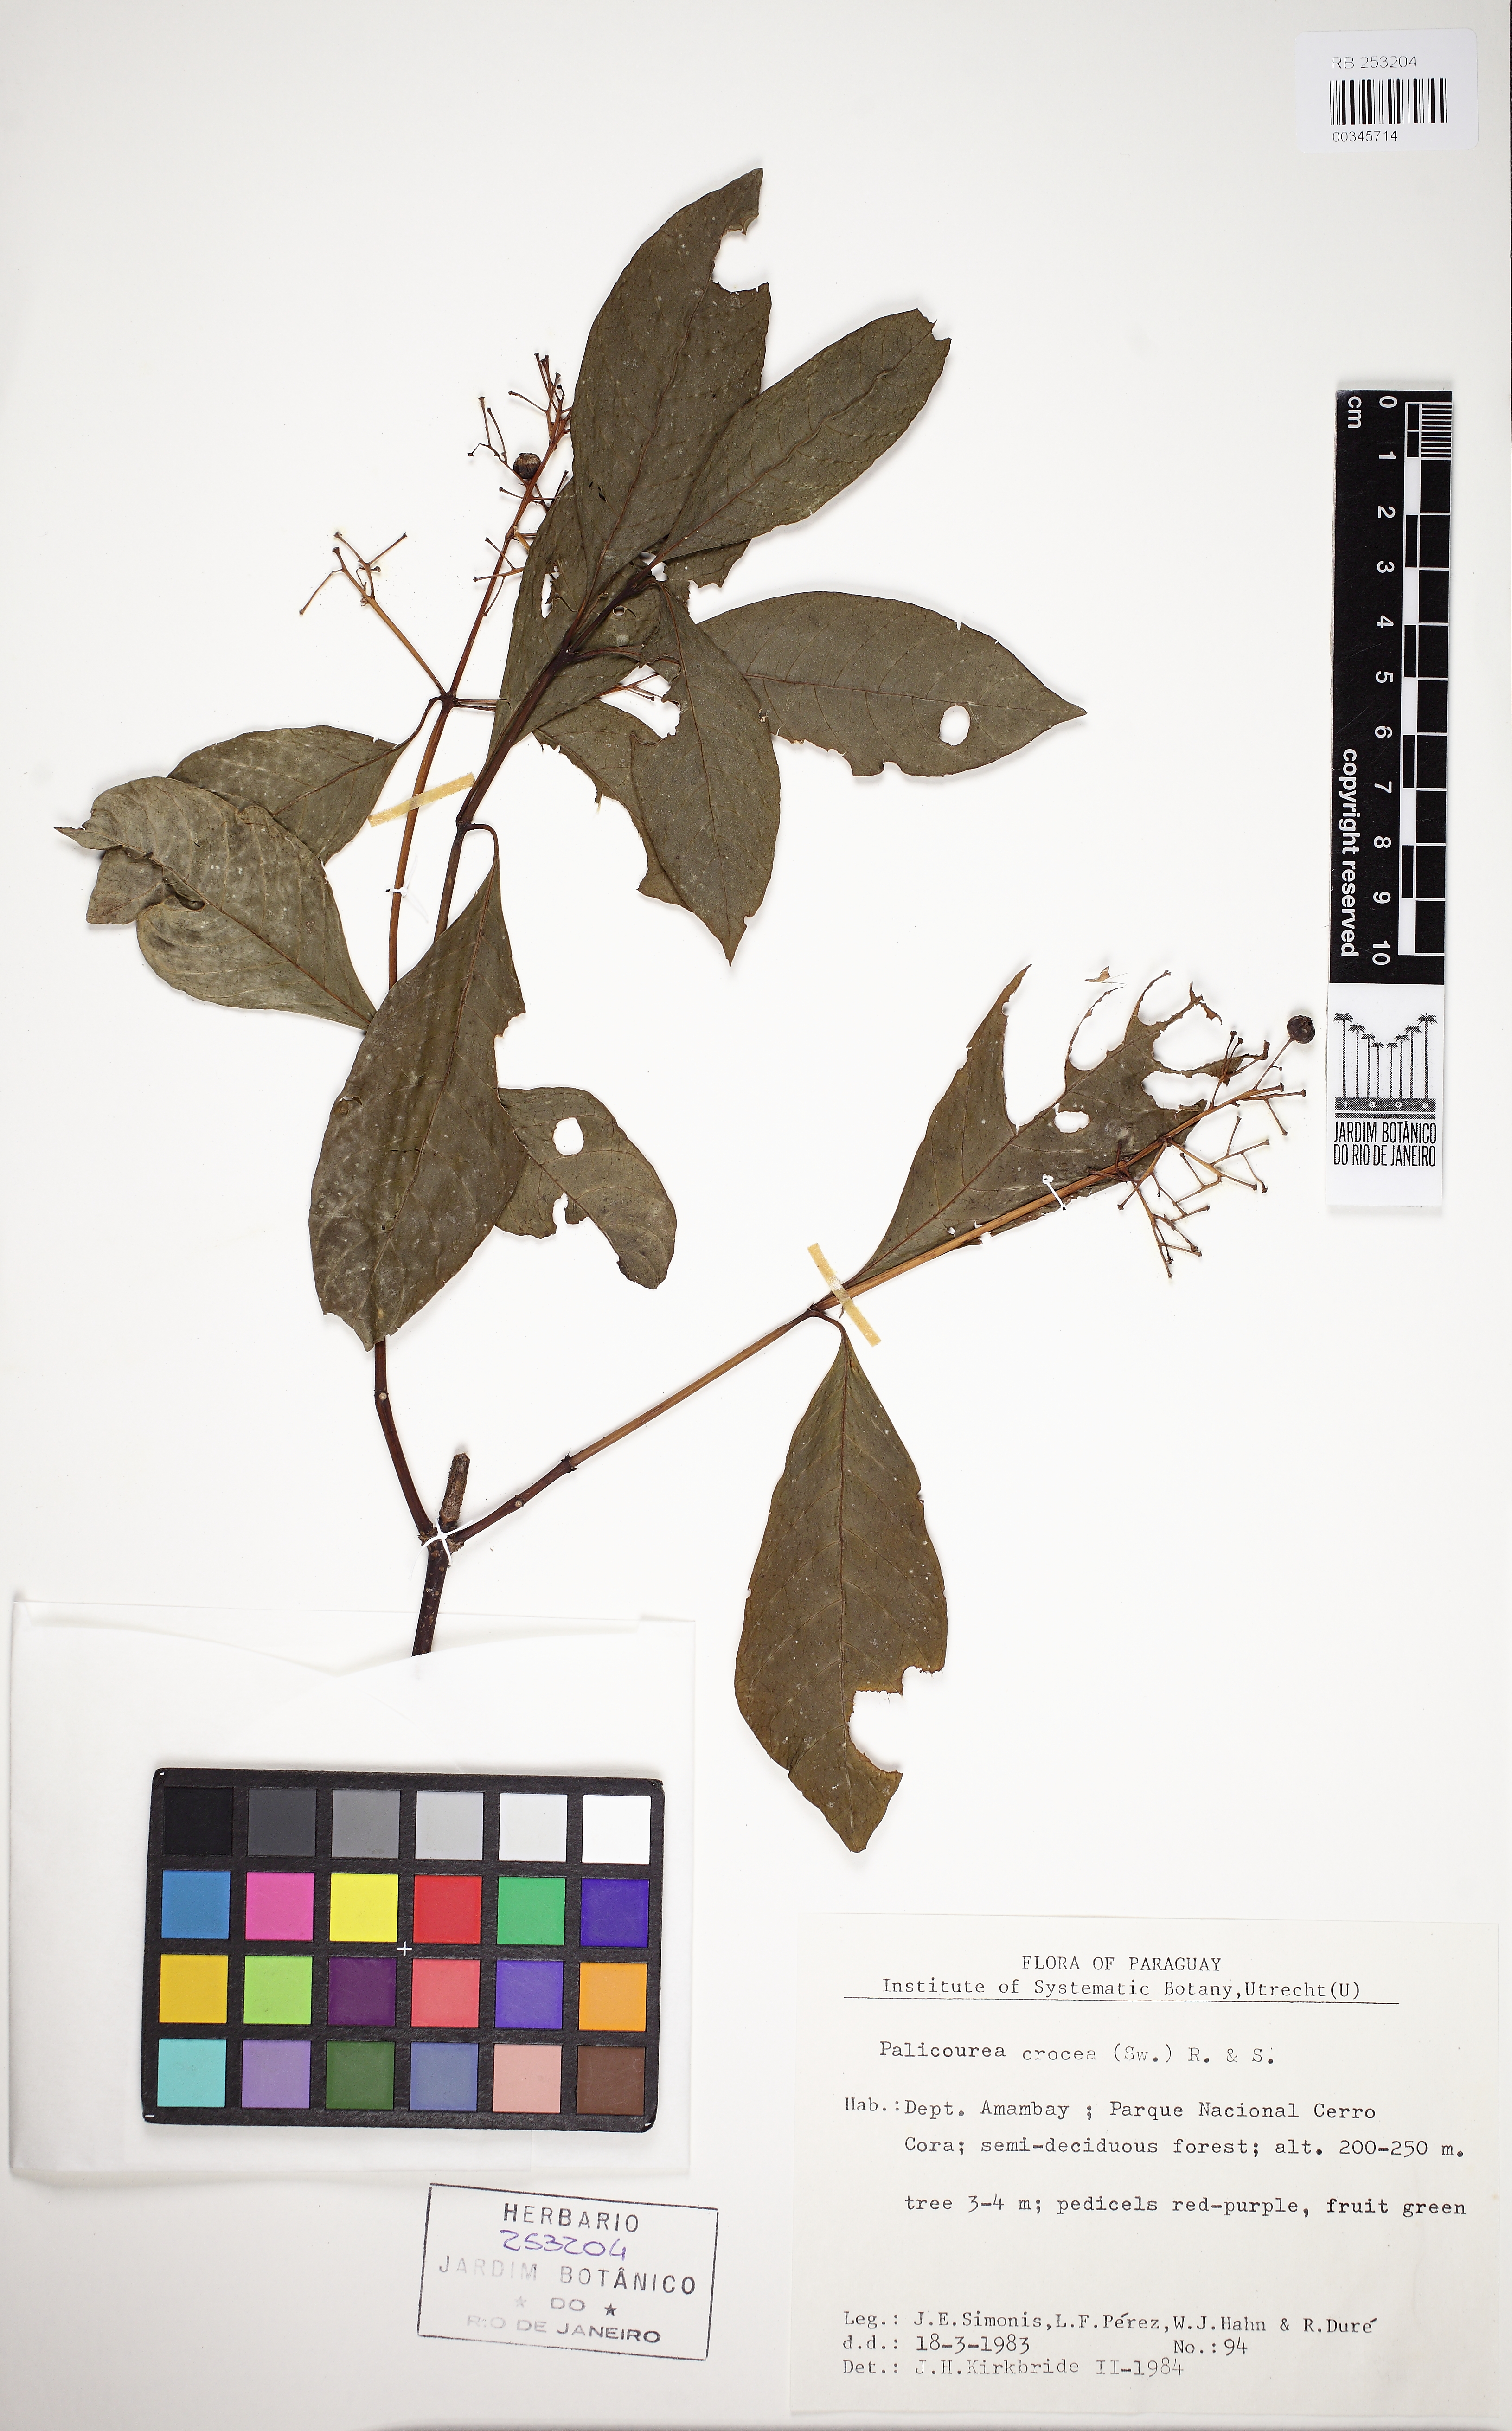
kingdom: Plantae
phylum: Tracheophyta
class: Magnoliopsida
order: Gentianales
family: Rubiaceae
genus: Palicourea
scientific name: Palicourea crocea
